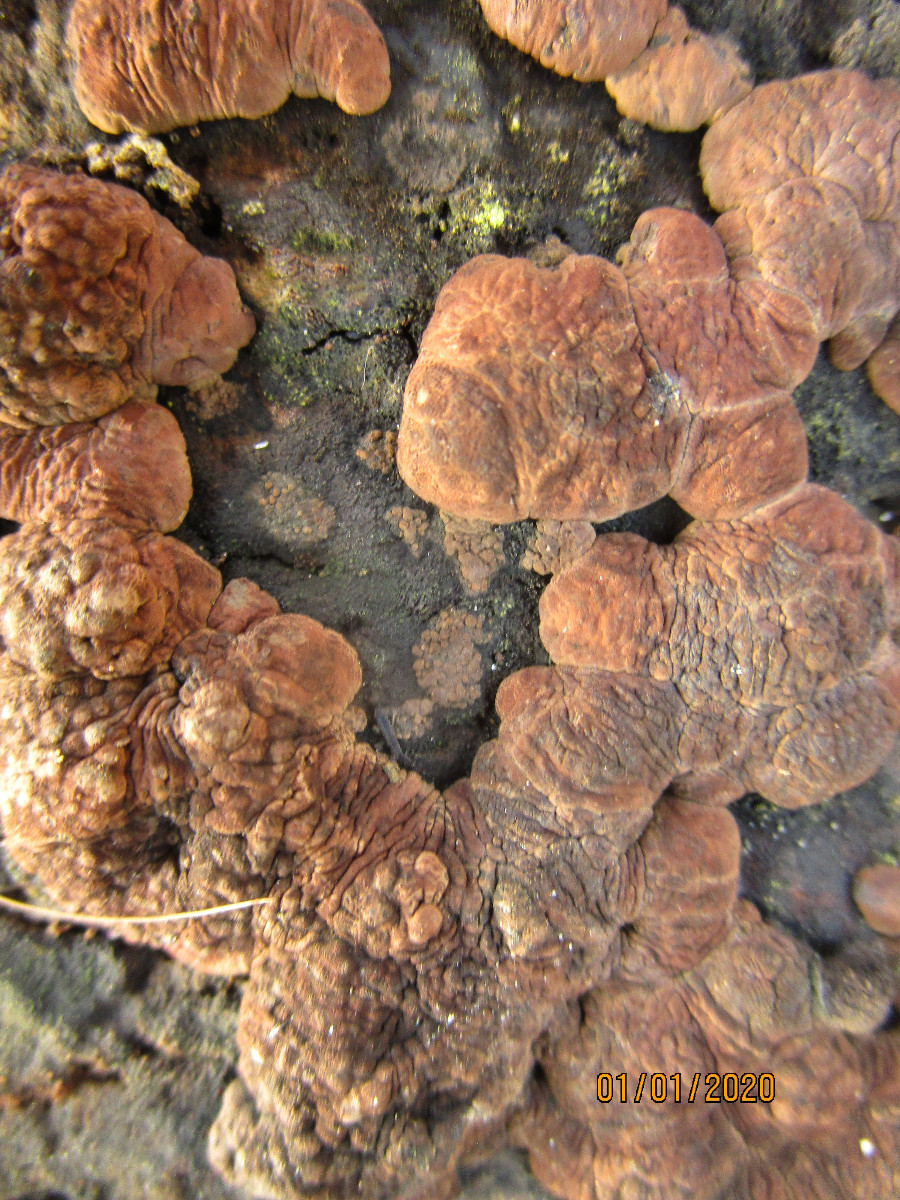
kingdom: Fungi
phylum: Ascomycota
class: Sordariomycetes
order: Xylariales
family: Hypoxylaceae
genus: Jackrogersella
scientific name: Jackrogersella multiformis
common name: foranderlig kulbær
